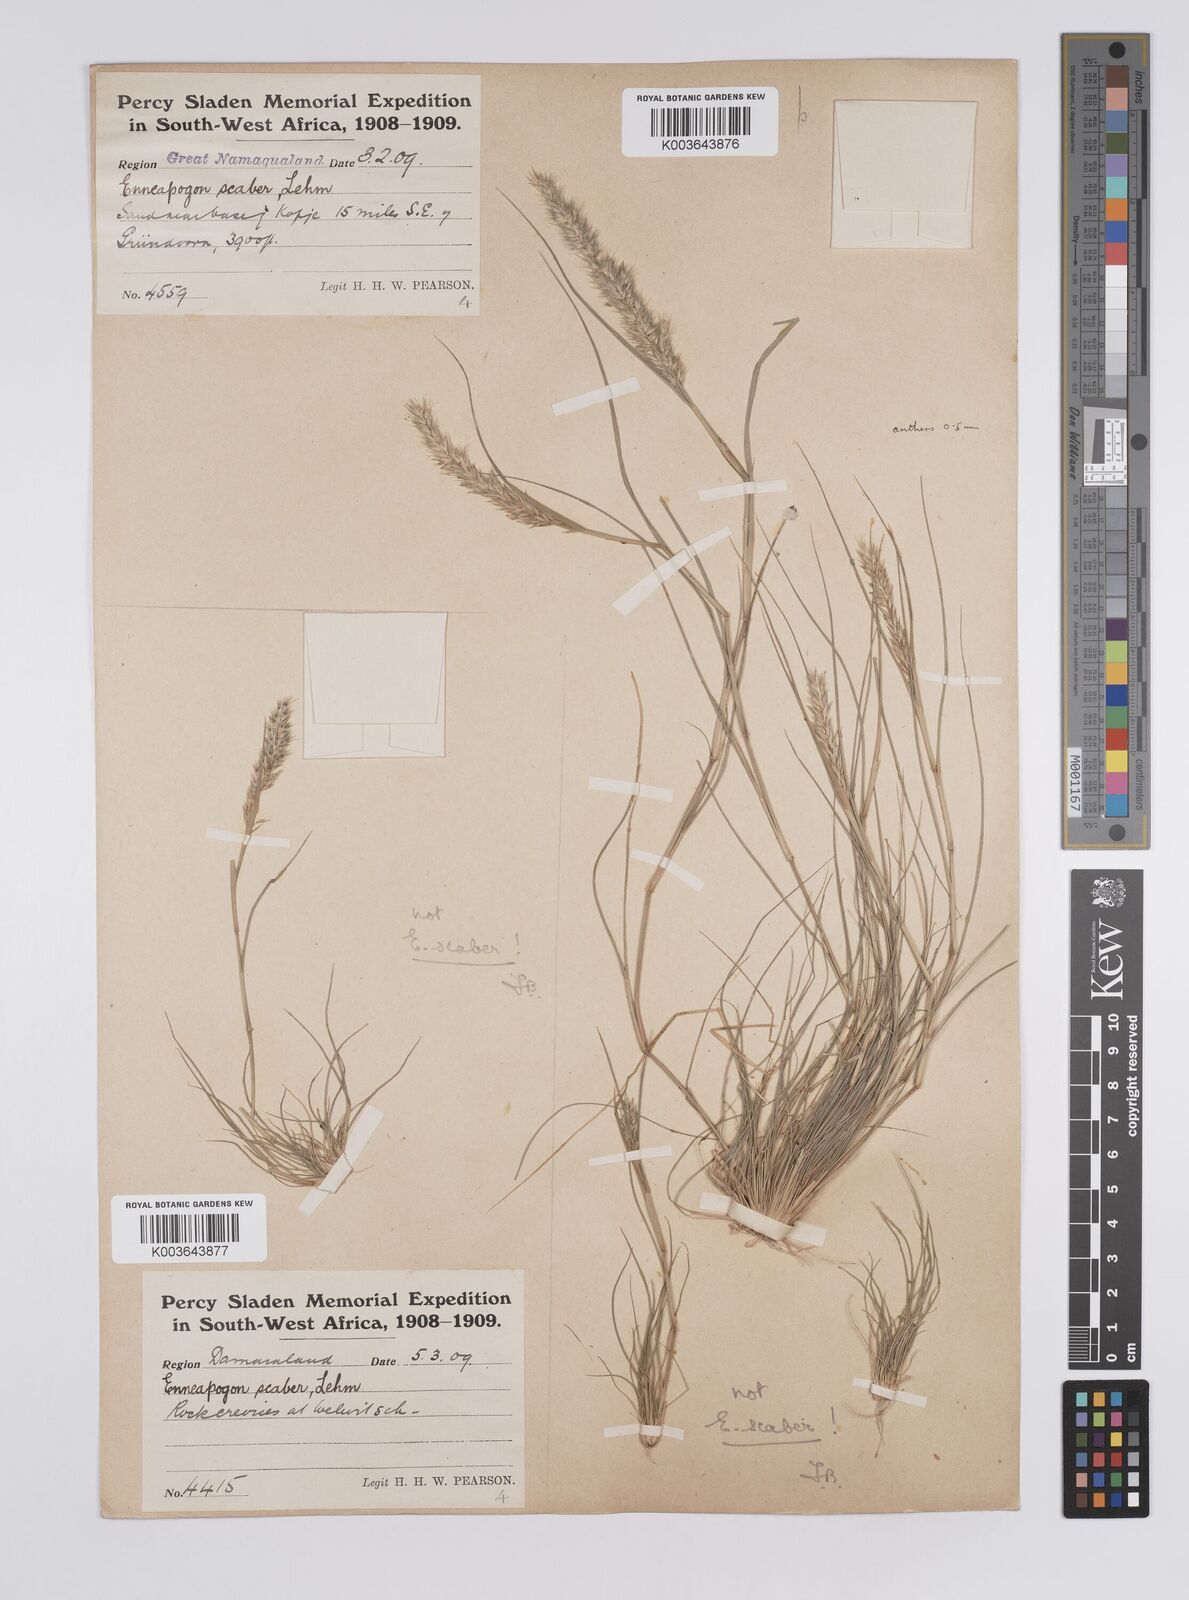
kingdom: Plantae
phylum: Tracheophyta
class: Liliopsida
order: Poales
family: Poaceae
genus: Enneapogon
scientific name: Enneapogon desvauxii
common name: Feather pappus grass
